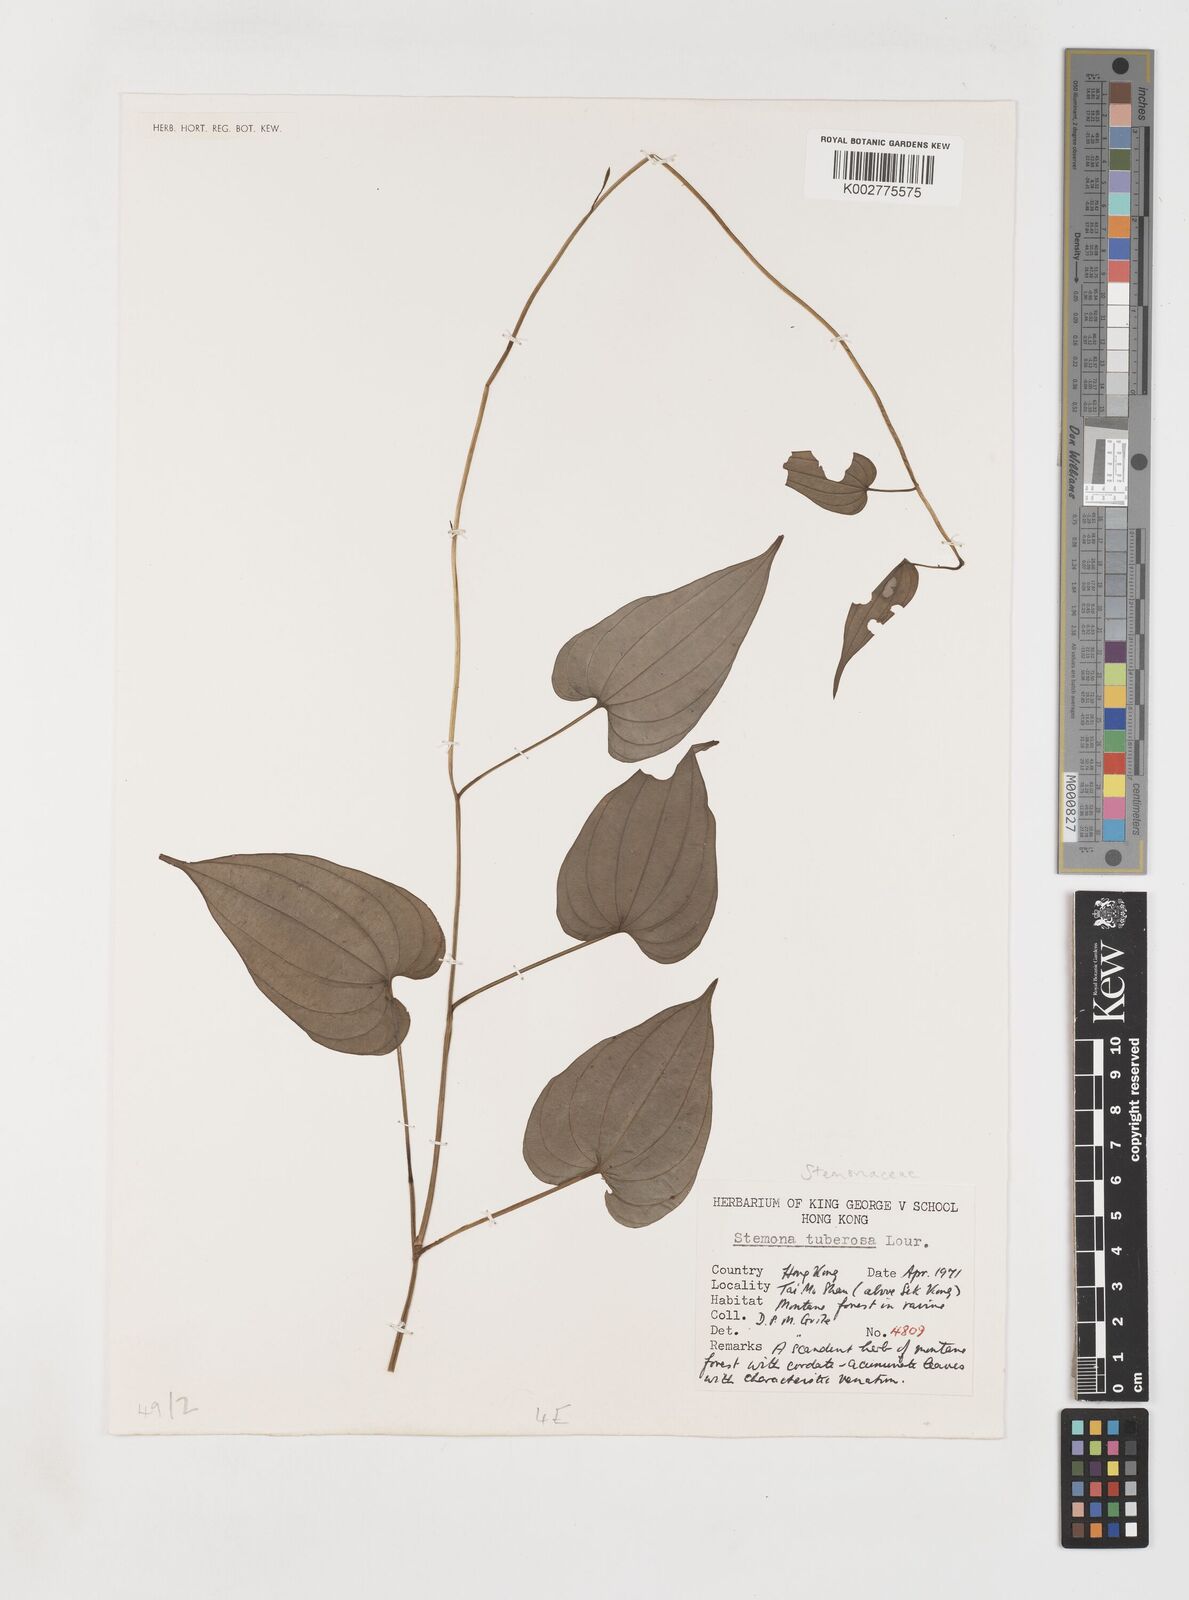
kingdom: Plantae
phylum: Tracheophyta
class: Liliopsida
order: Pandanales
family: Stemonaceae
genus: Stemona
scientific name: Stemona tuberosa
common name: Stemona
